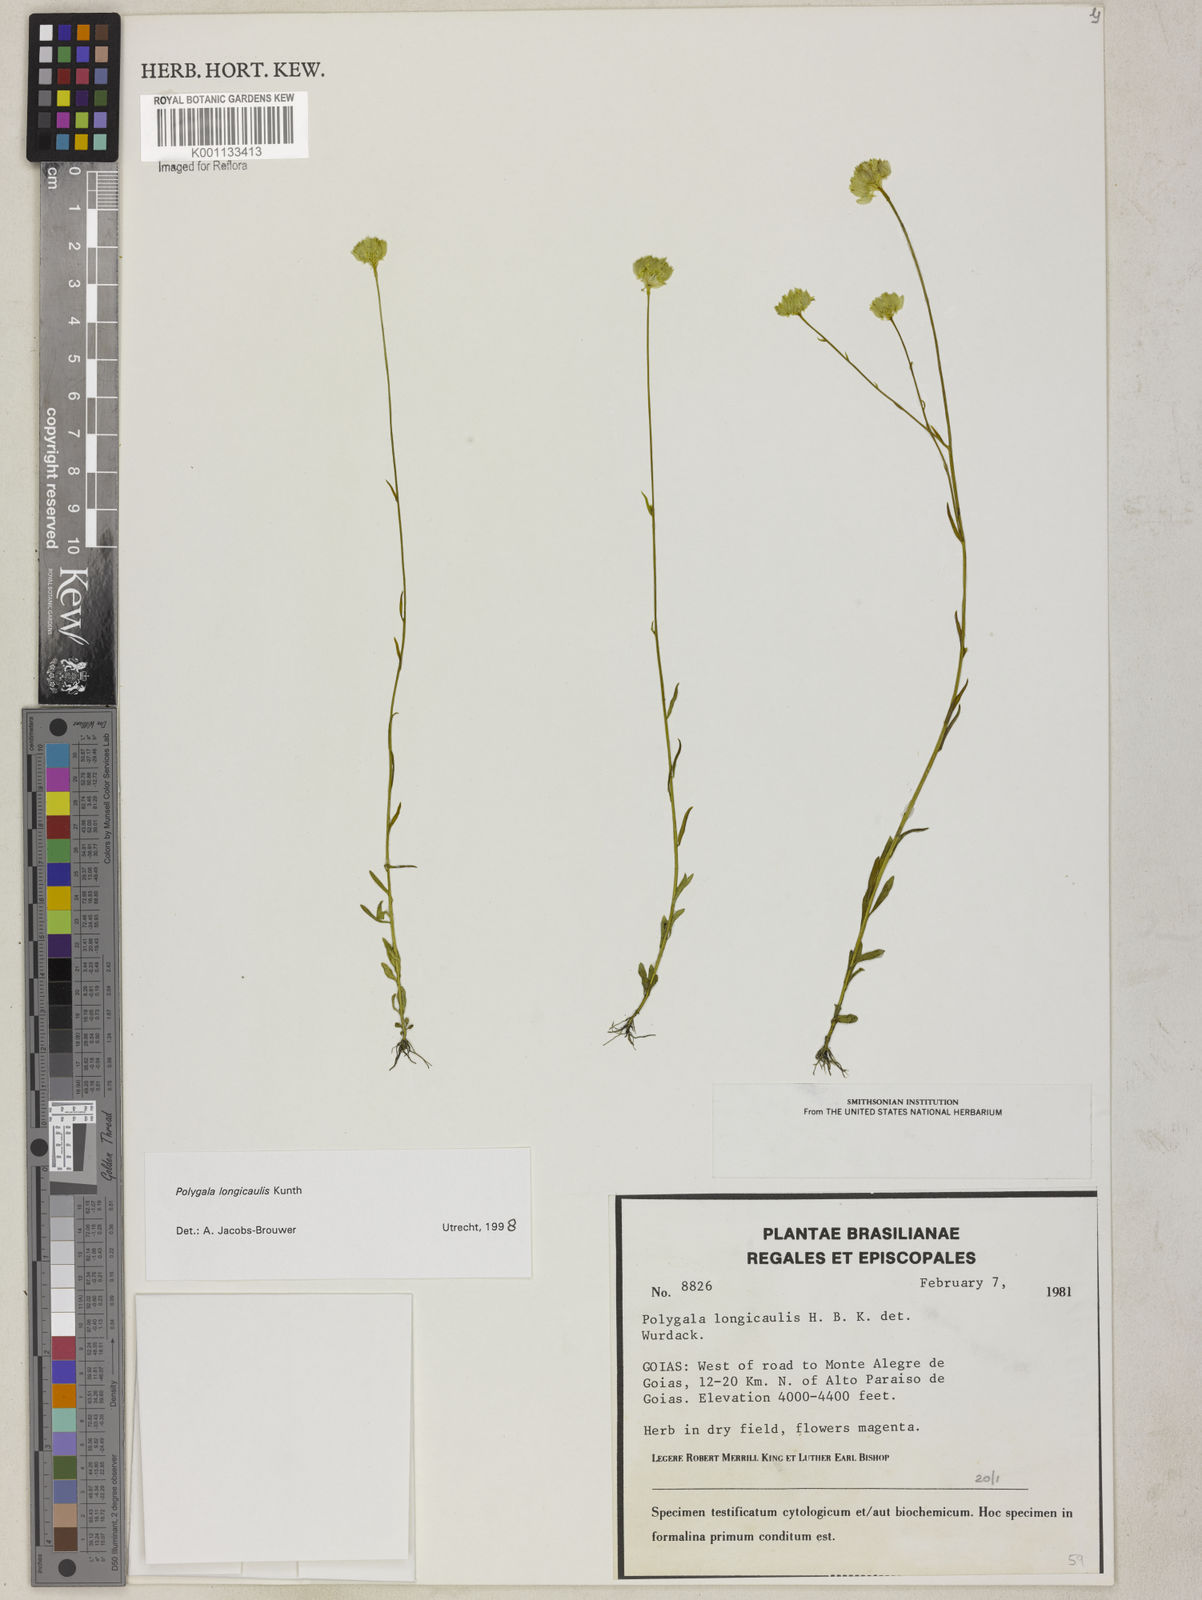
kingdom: Plantae
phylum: Tracheophyta
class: Magnoliopsida
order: Fabales
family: Polygalaceae
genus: Polygala
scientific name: Polygala longicaulis
